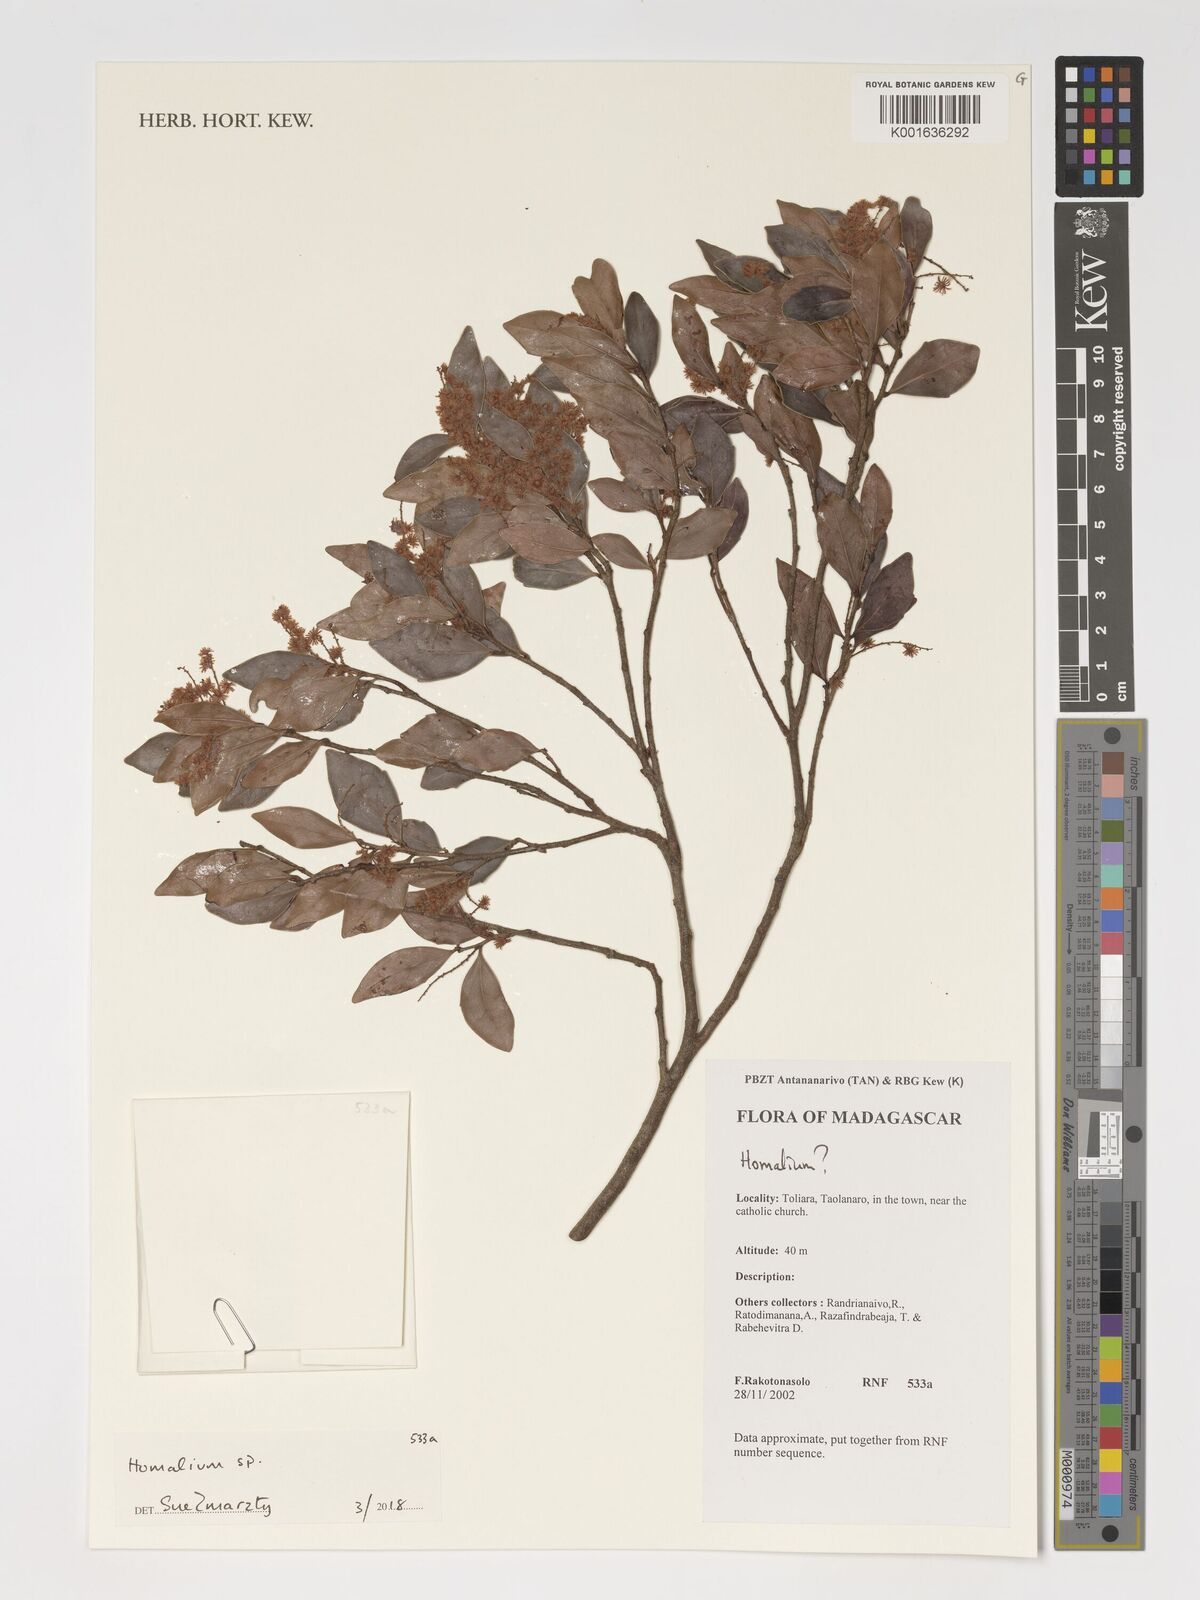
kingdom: Plantae
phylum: Tracheophyta
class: Magnoliopsida
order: Malpighiales
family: Salicaceae
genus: Homalium
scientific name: Homalium
